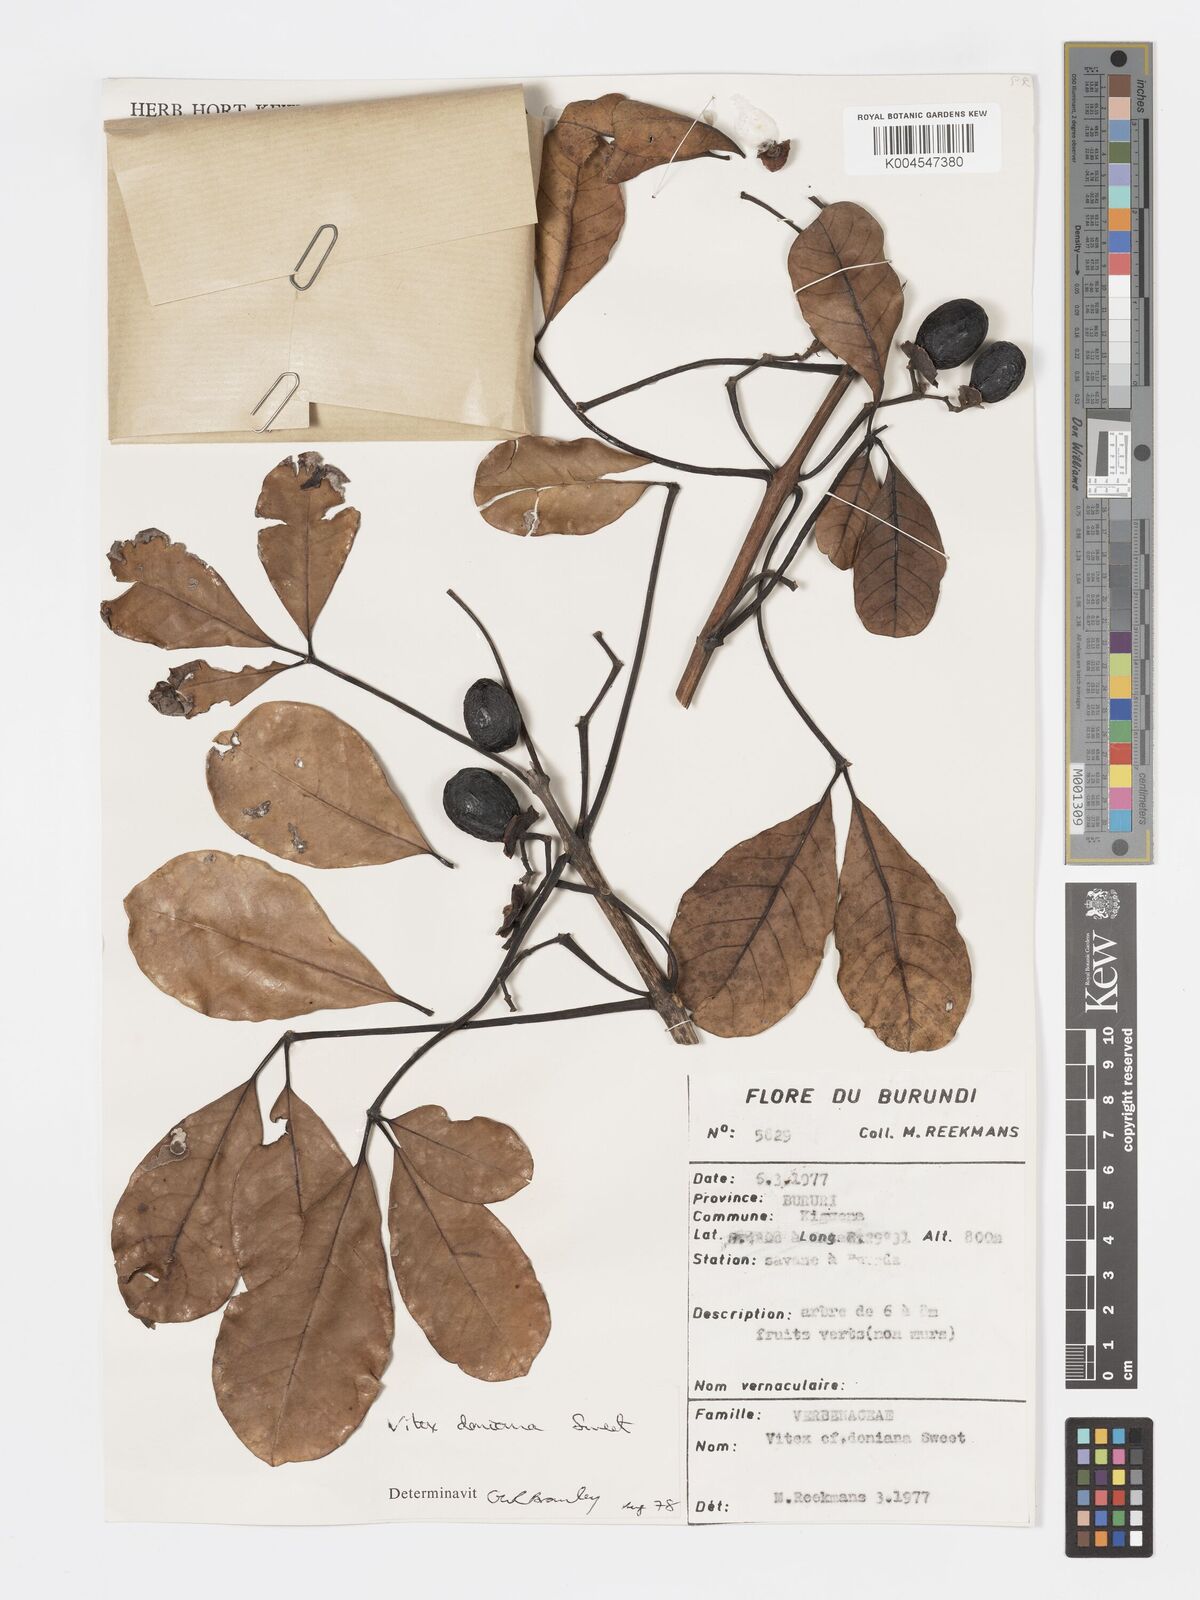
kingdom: Plantae
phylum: Tracheophyta
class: Magnoliopsida
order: Lamiales
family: Lamiaceae
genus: Vitex
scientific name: Vitex doniana
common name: Black plum
